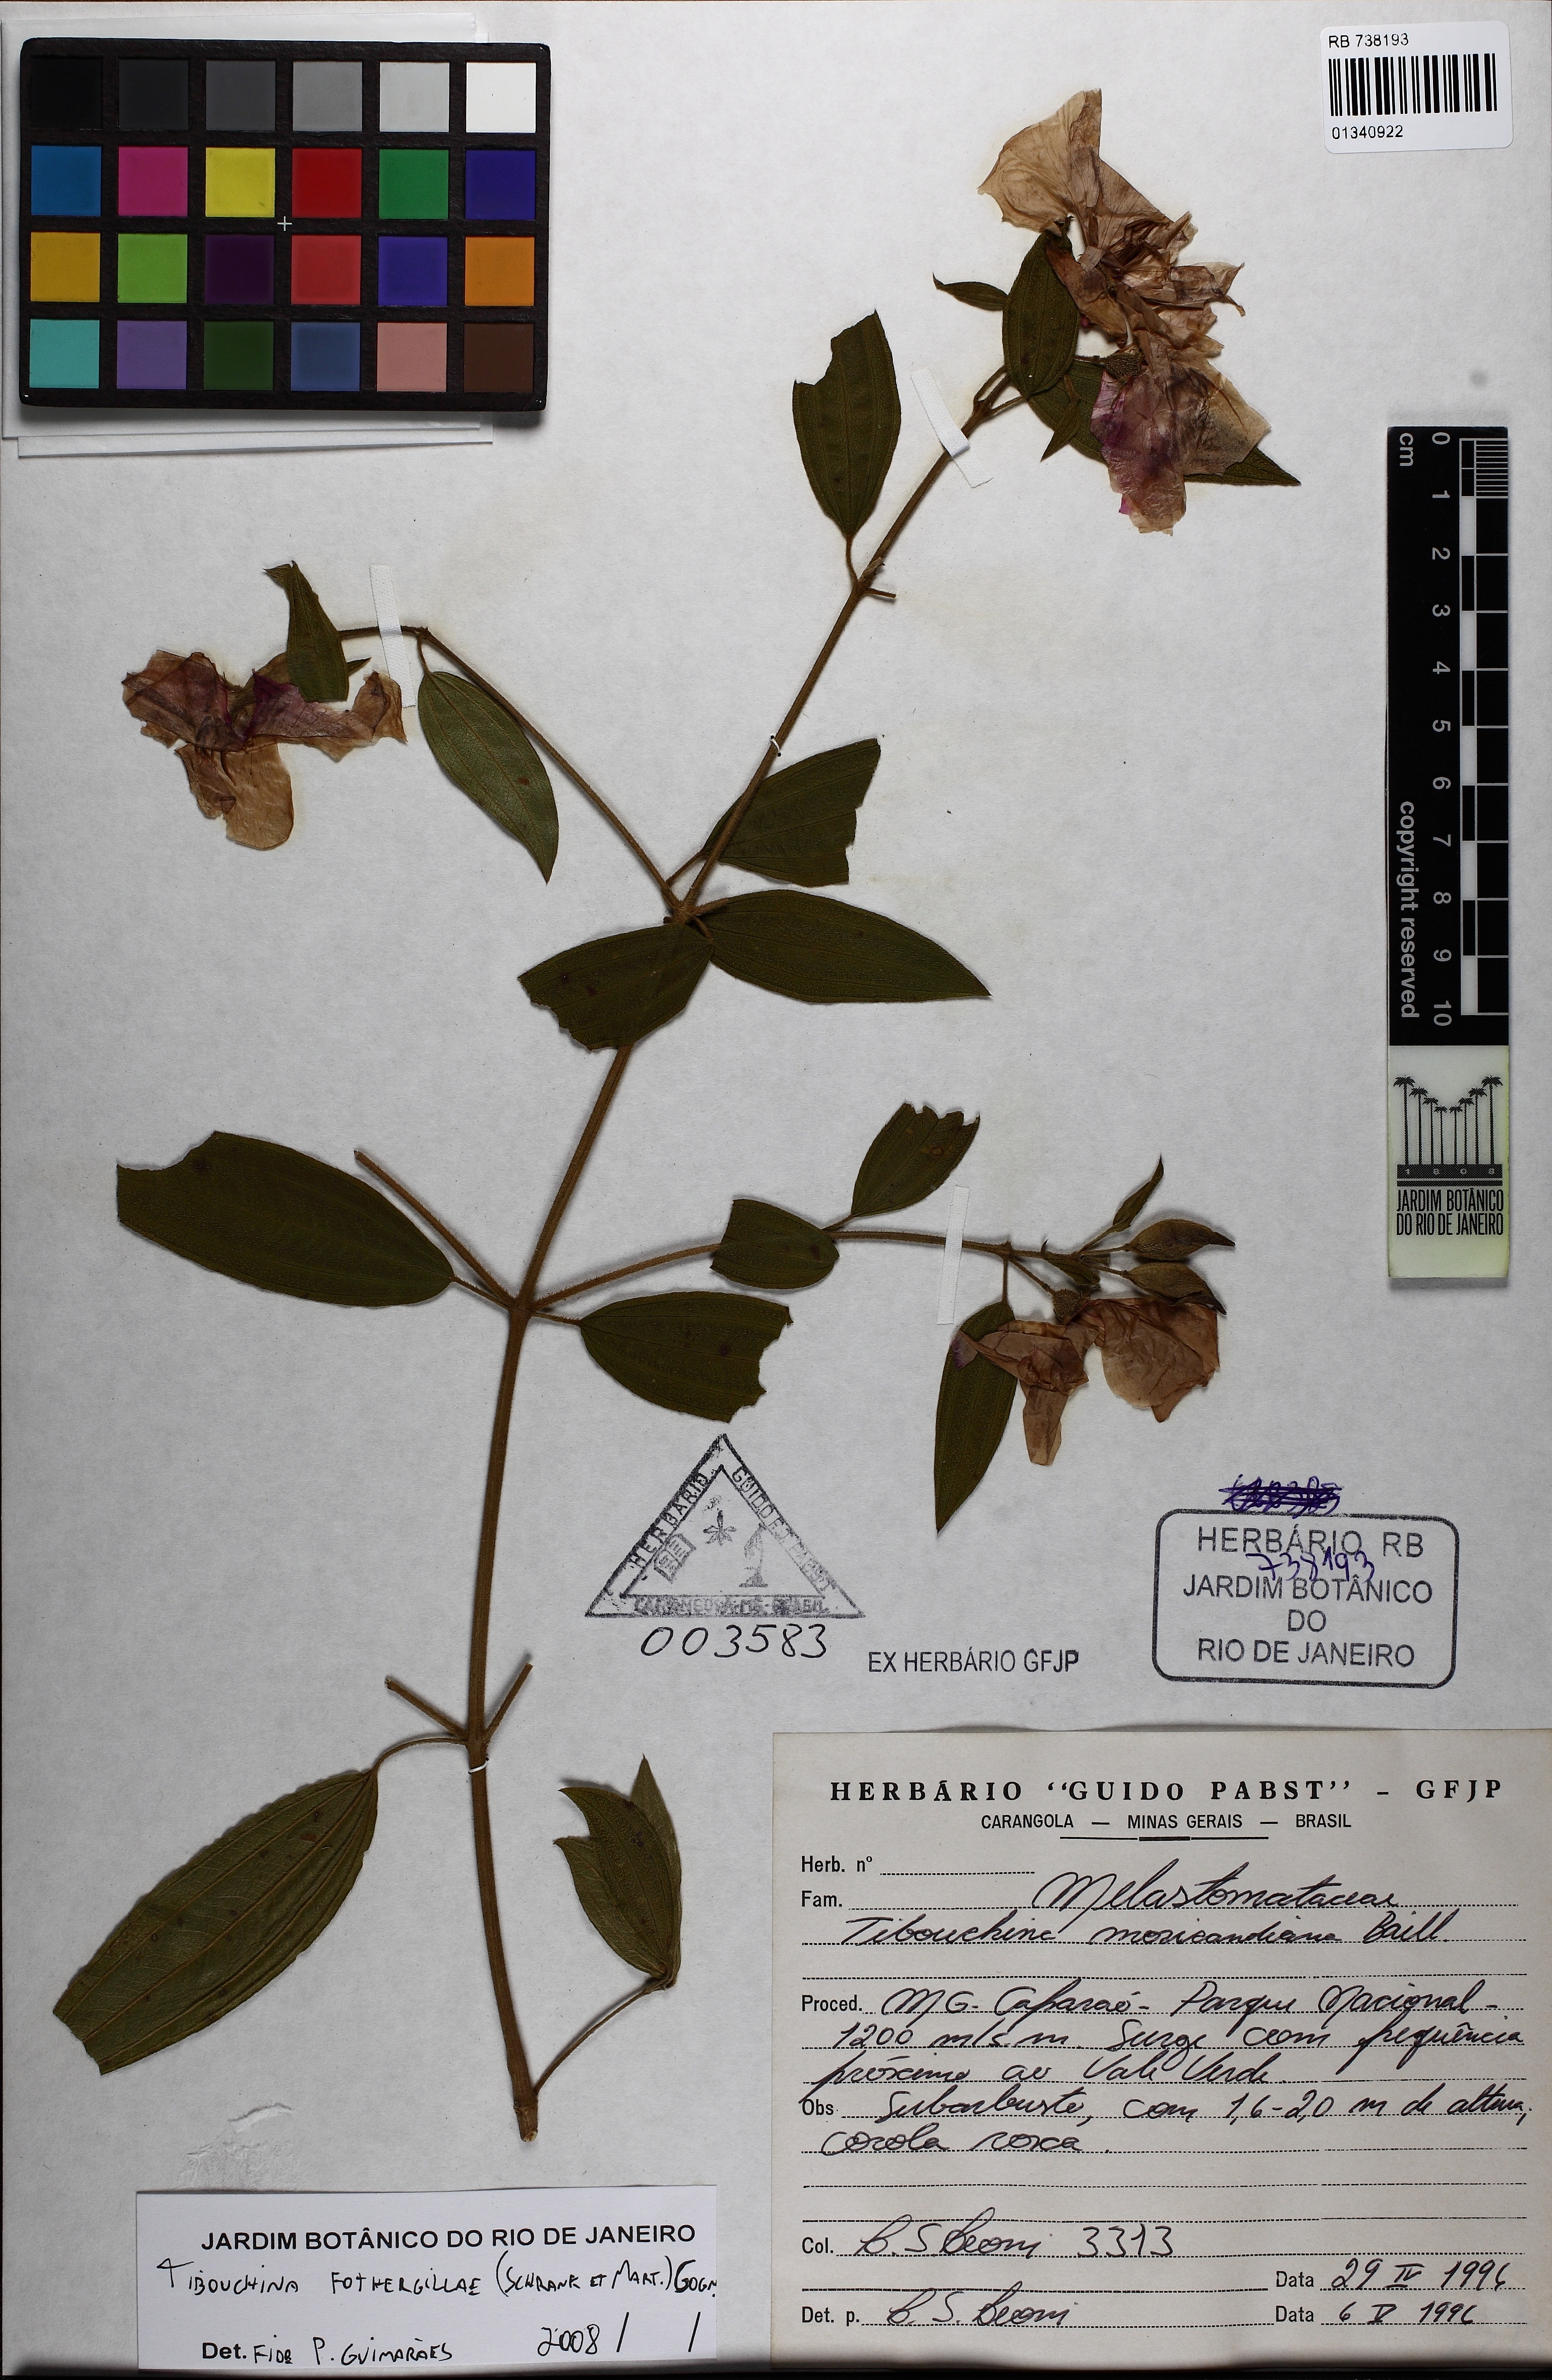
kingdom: Plantae
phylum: Tracheophyta
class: Magnoliopsida
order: Myrtales
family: Melastomataceae
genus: Pleroma
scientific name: Pleroma fothergillae
